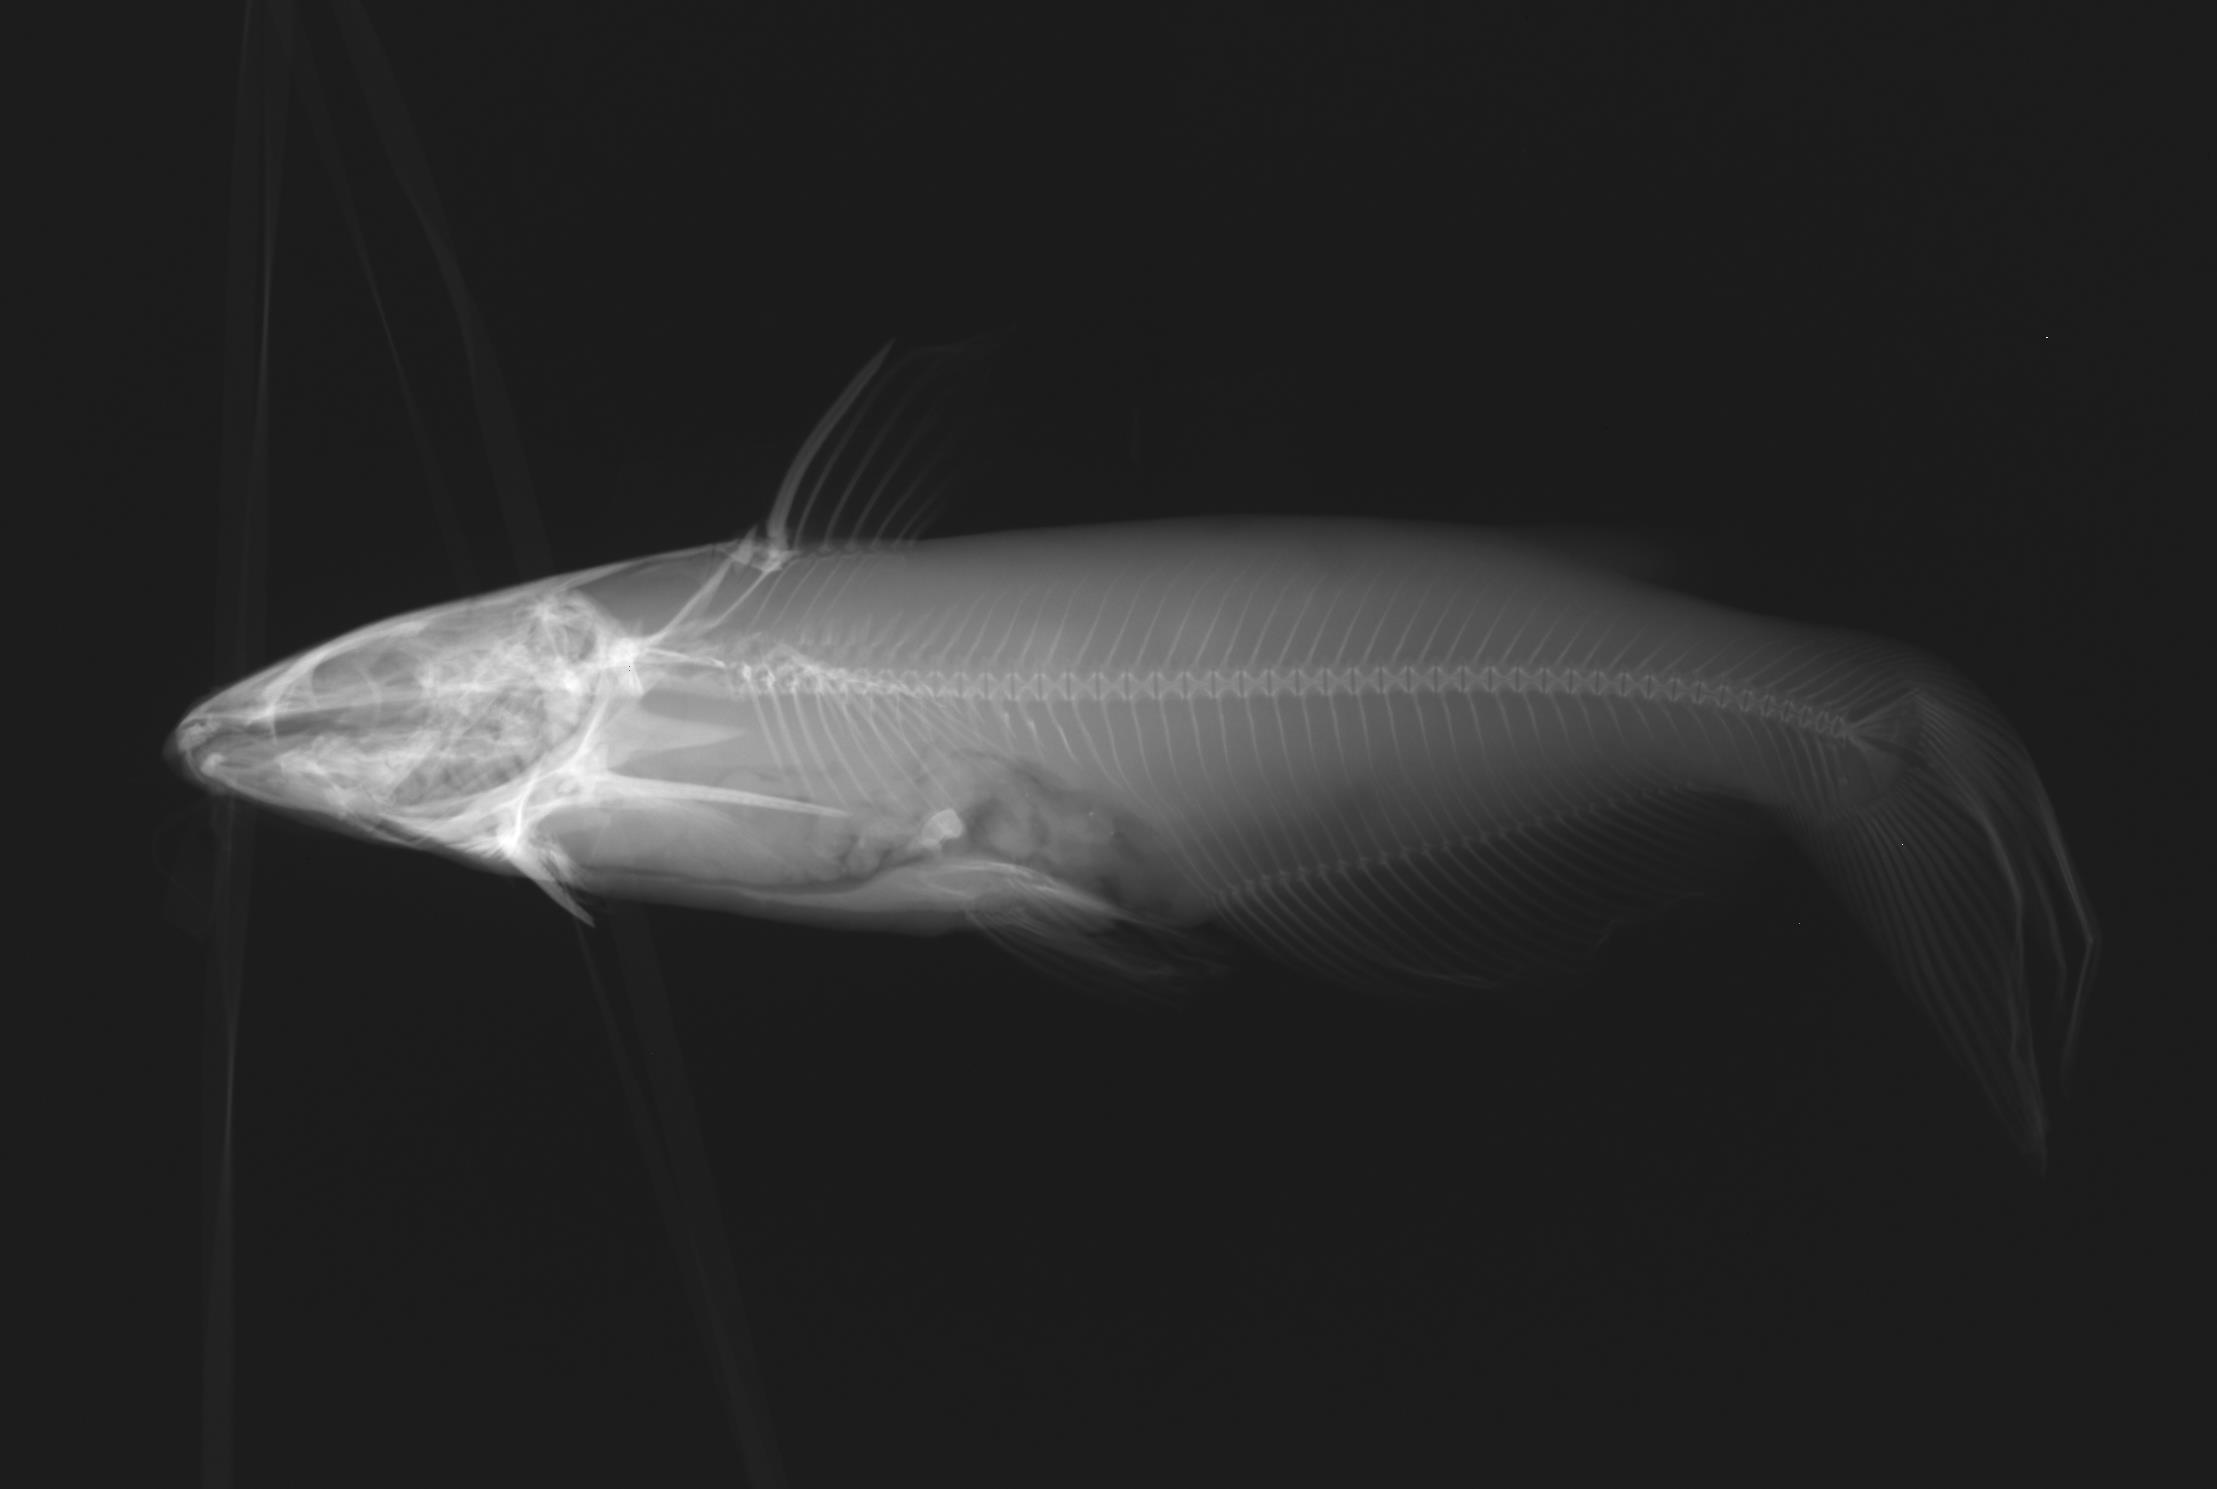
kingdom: Animalia
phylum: Chordata
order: Siluriformes
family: Ictaluridae
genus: Ictalurus
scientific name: Ictalurus punctatus
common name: Channel catfish
